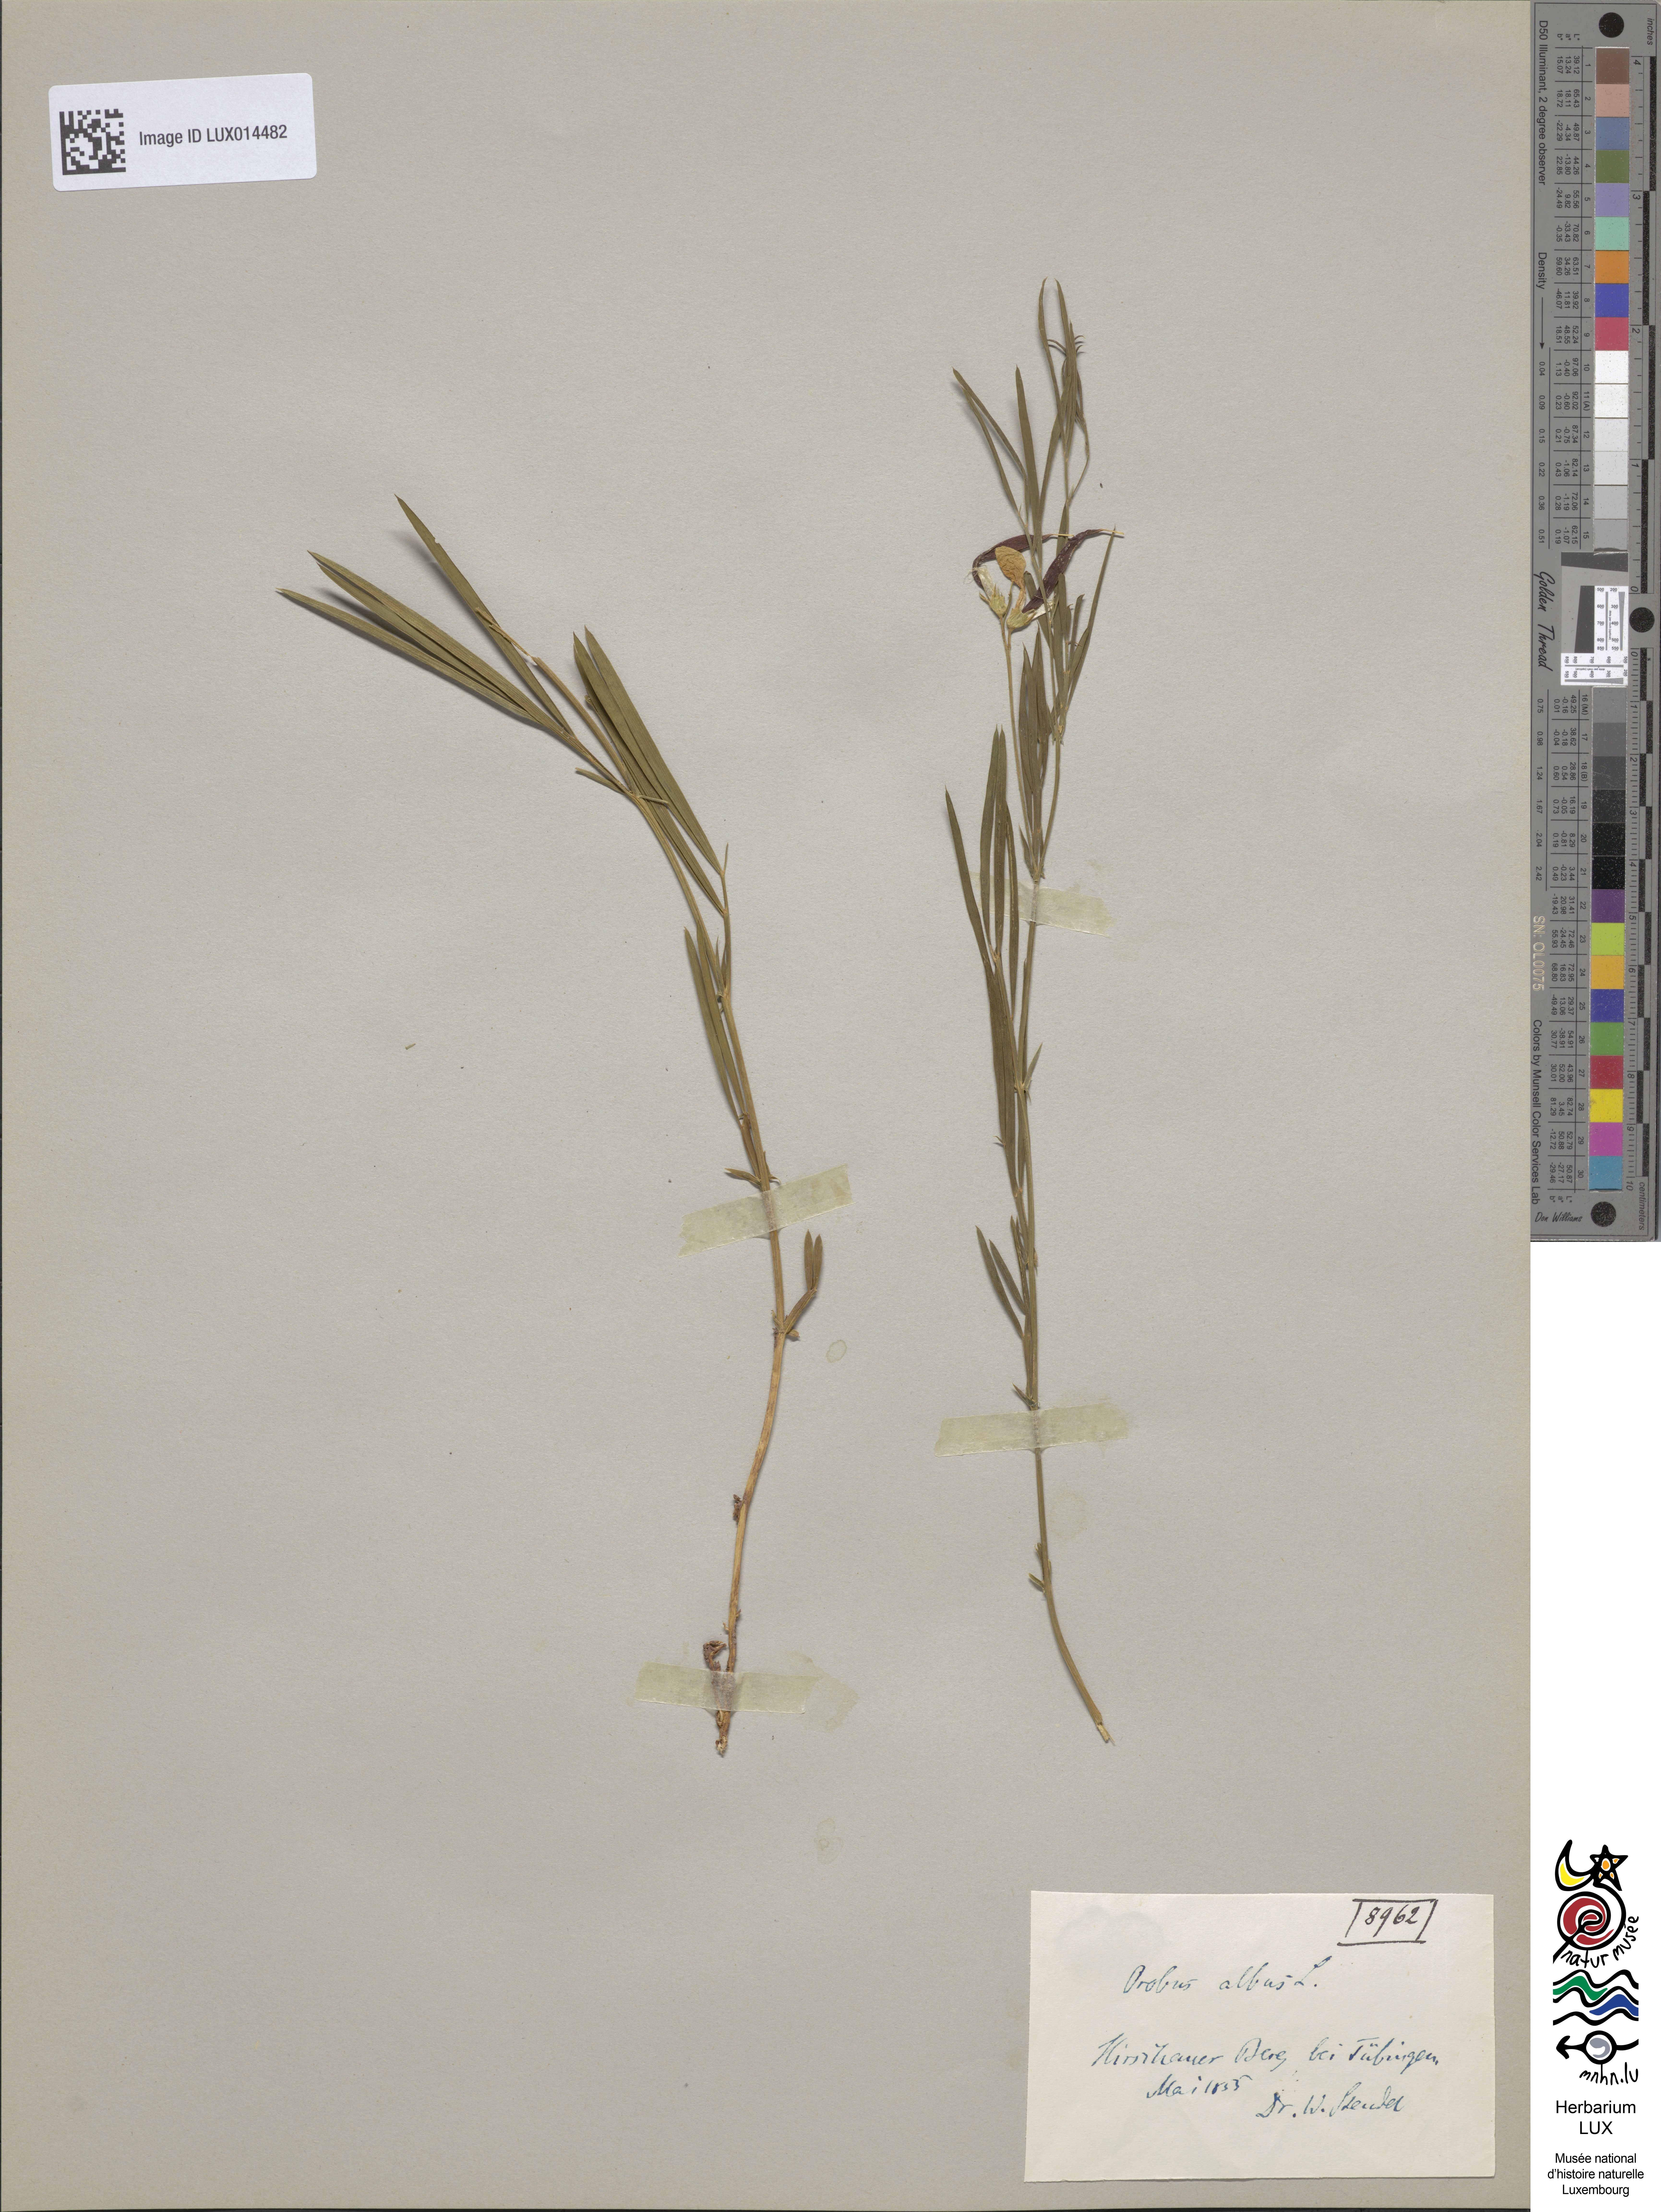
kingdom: Plantae
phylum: Tracheophyta
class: Magnoliopsida
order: Fabales
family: Fabaceae
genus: Lathyrus
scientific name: Lathyrus pannonicus
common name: Pea
